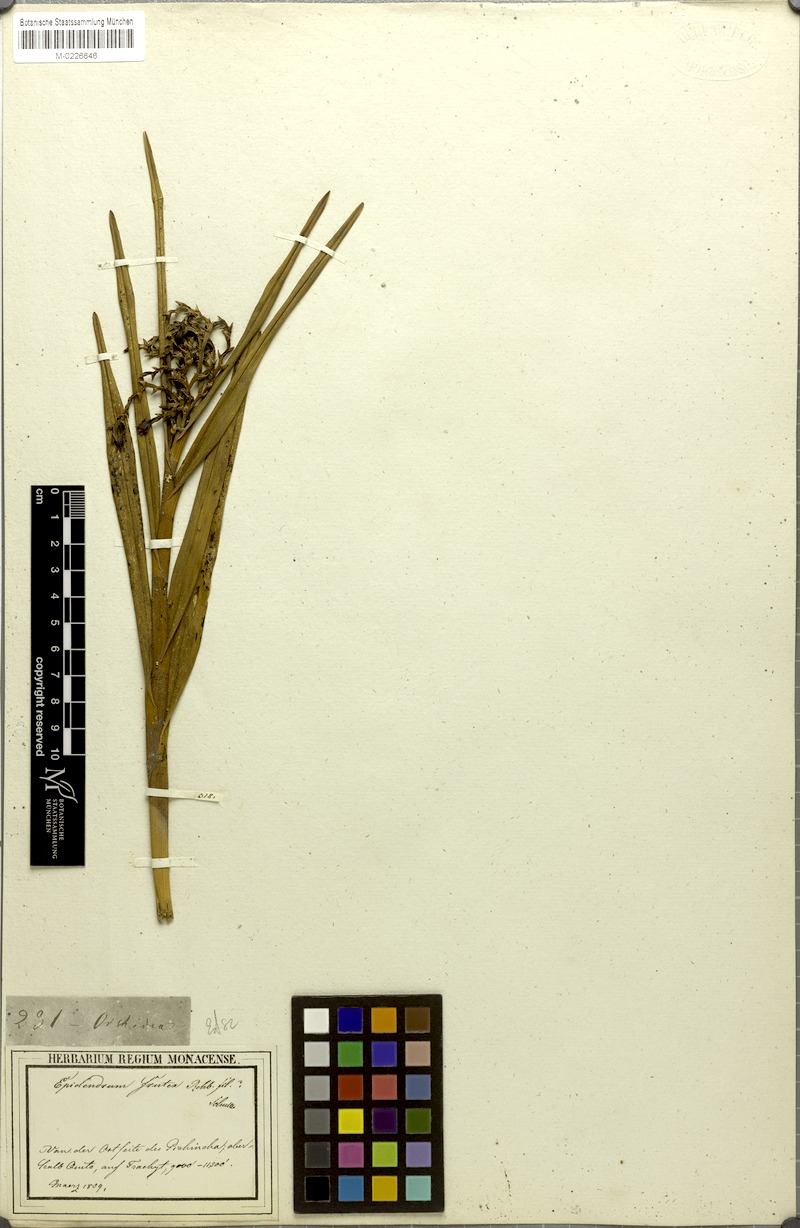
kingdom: Plantae
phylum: Tracheophyta
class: Liliopsida
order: Asparagales
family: Orchidaceae
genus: Epidendrum
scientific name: Epidendrum frutex
